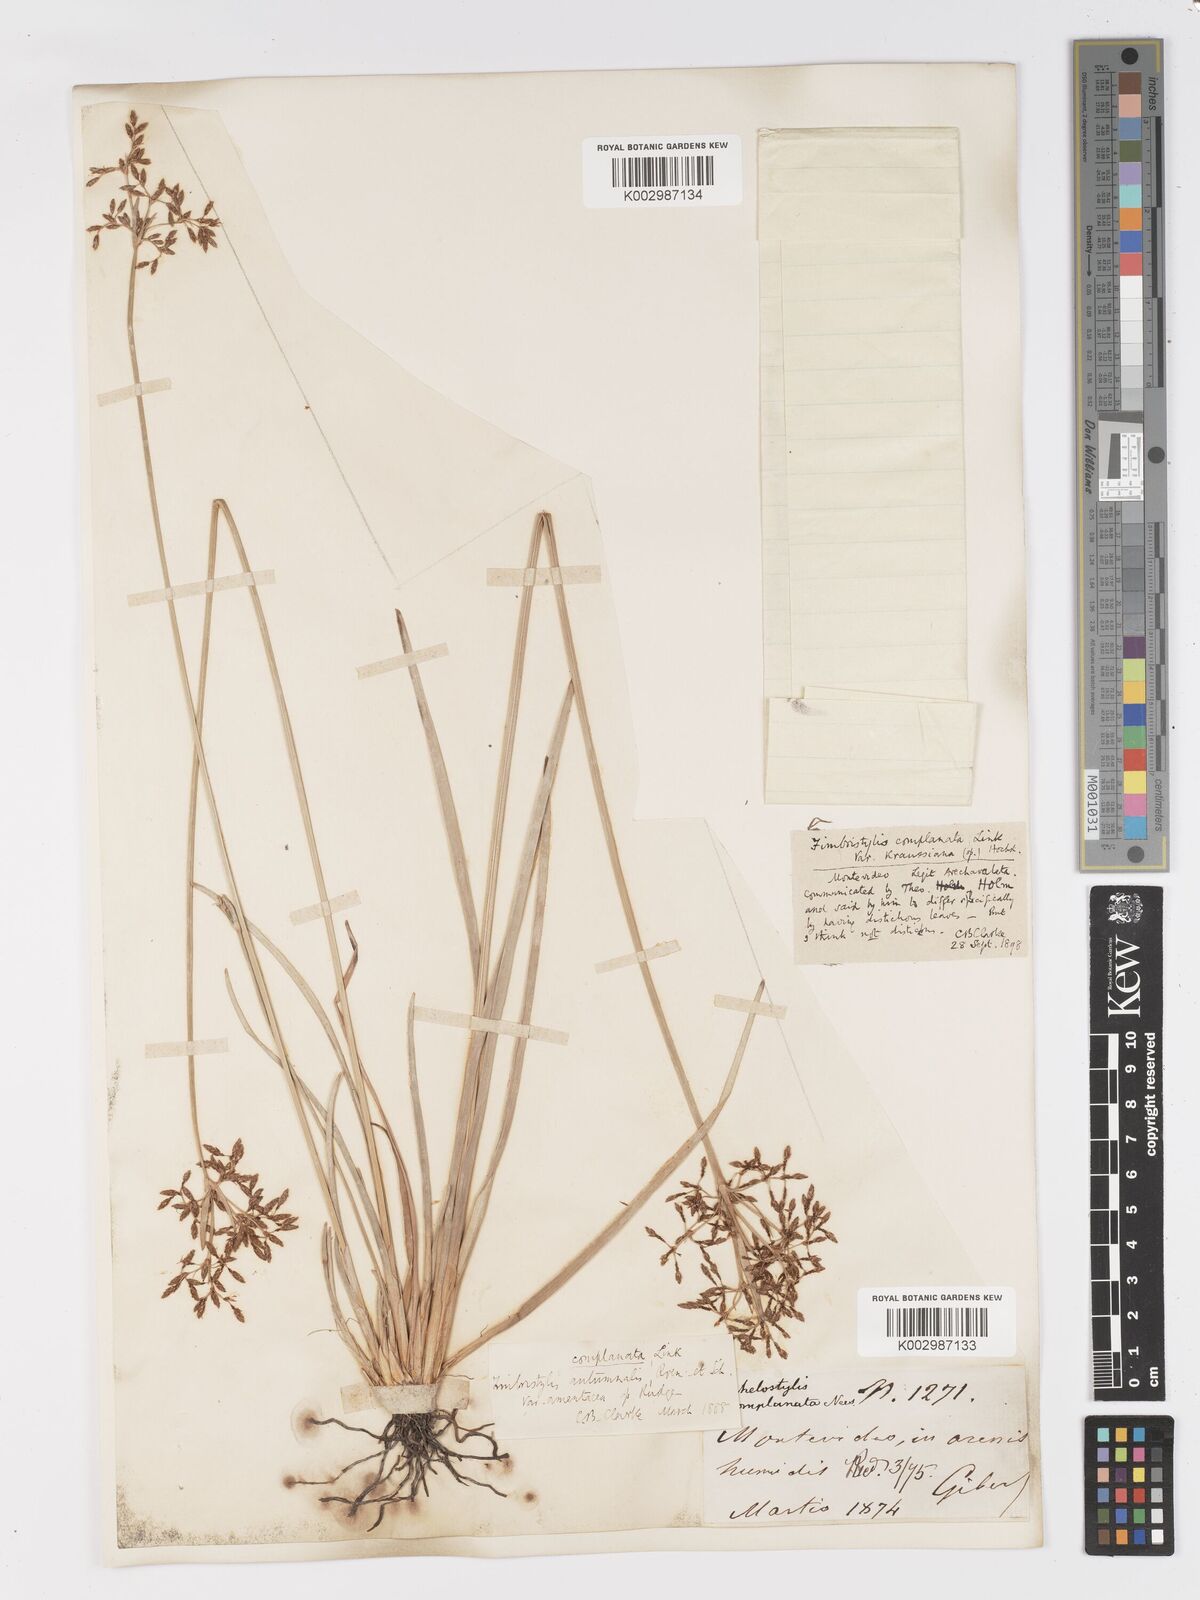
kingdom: Plantae
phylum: Tracheophyta
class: Liliopsida
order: Poales
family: Cyperaceae
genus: Fimbristylis
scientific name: Fimbristylis complanata
